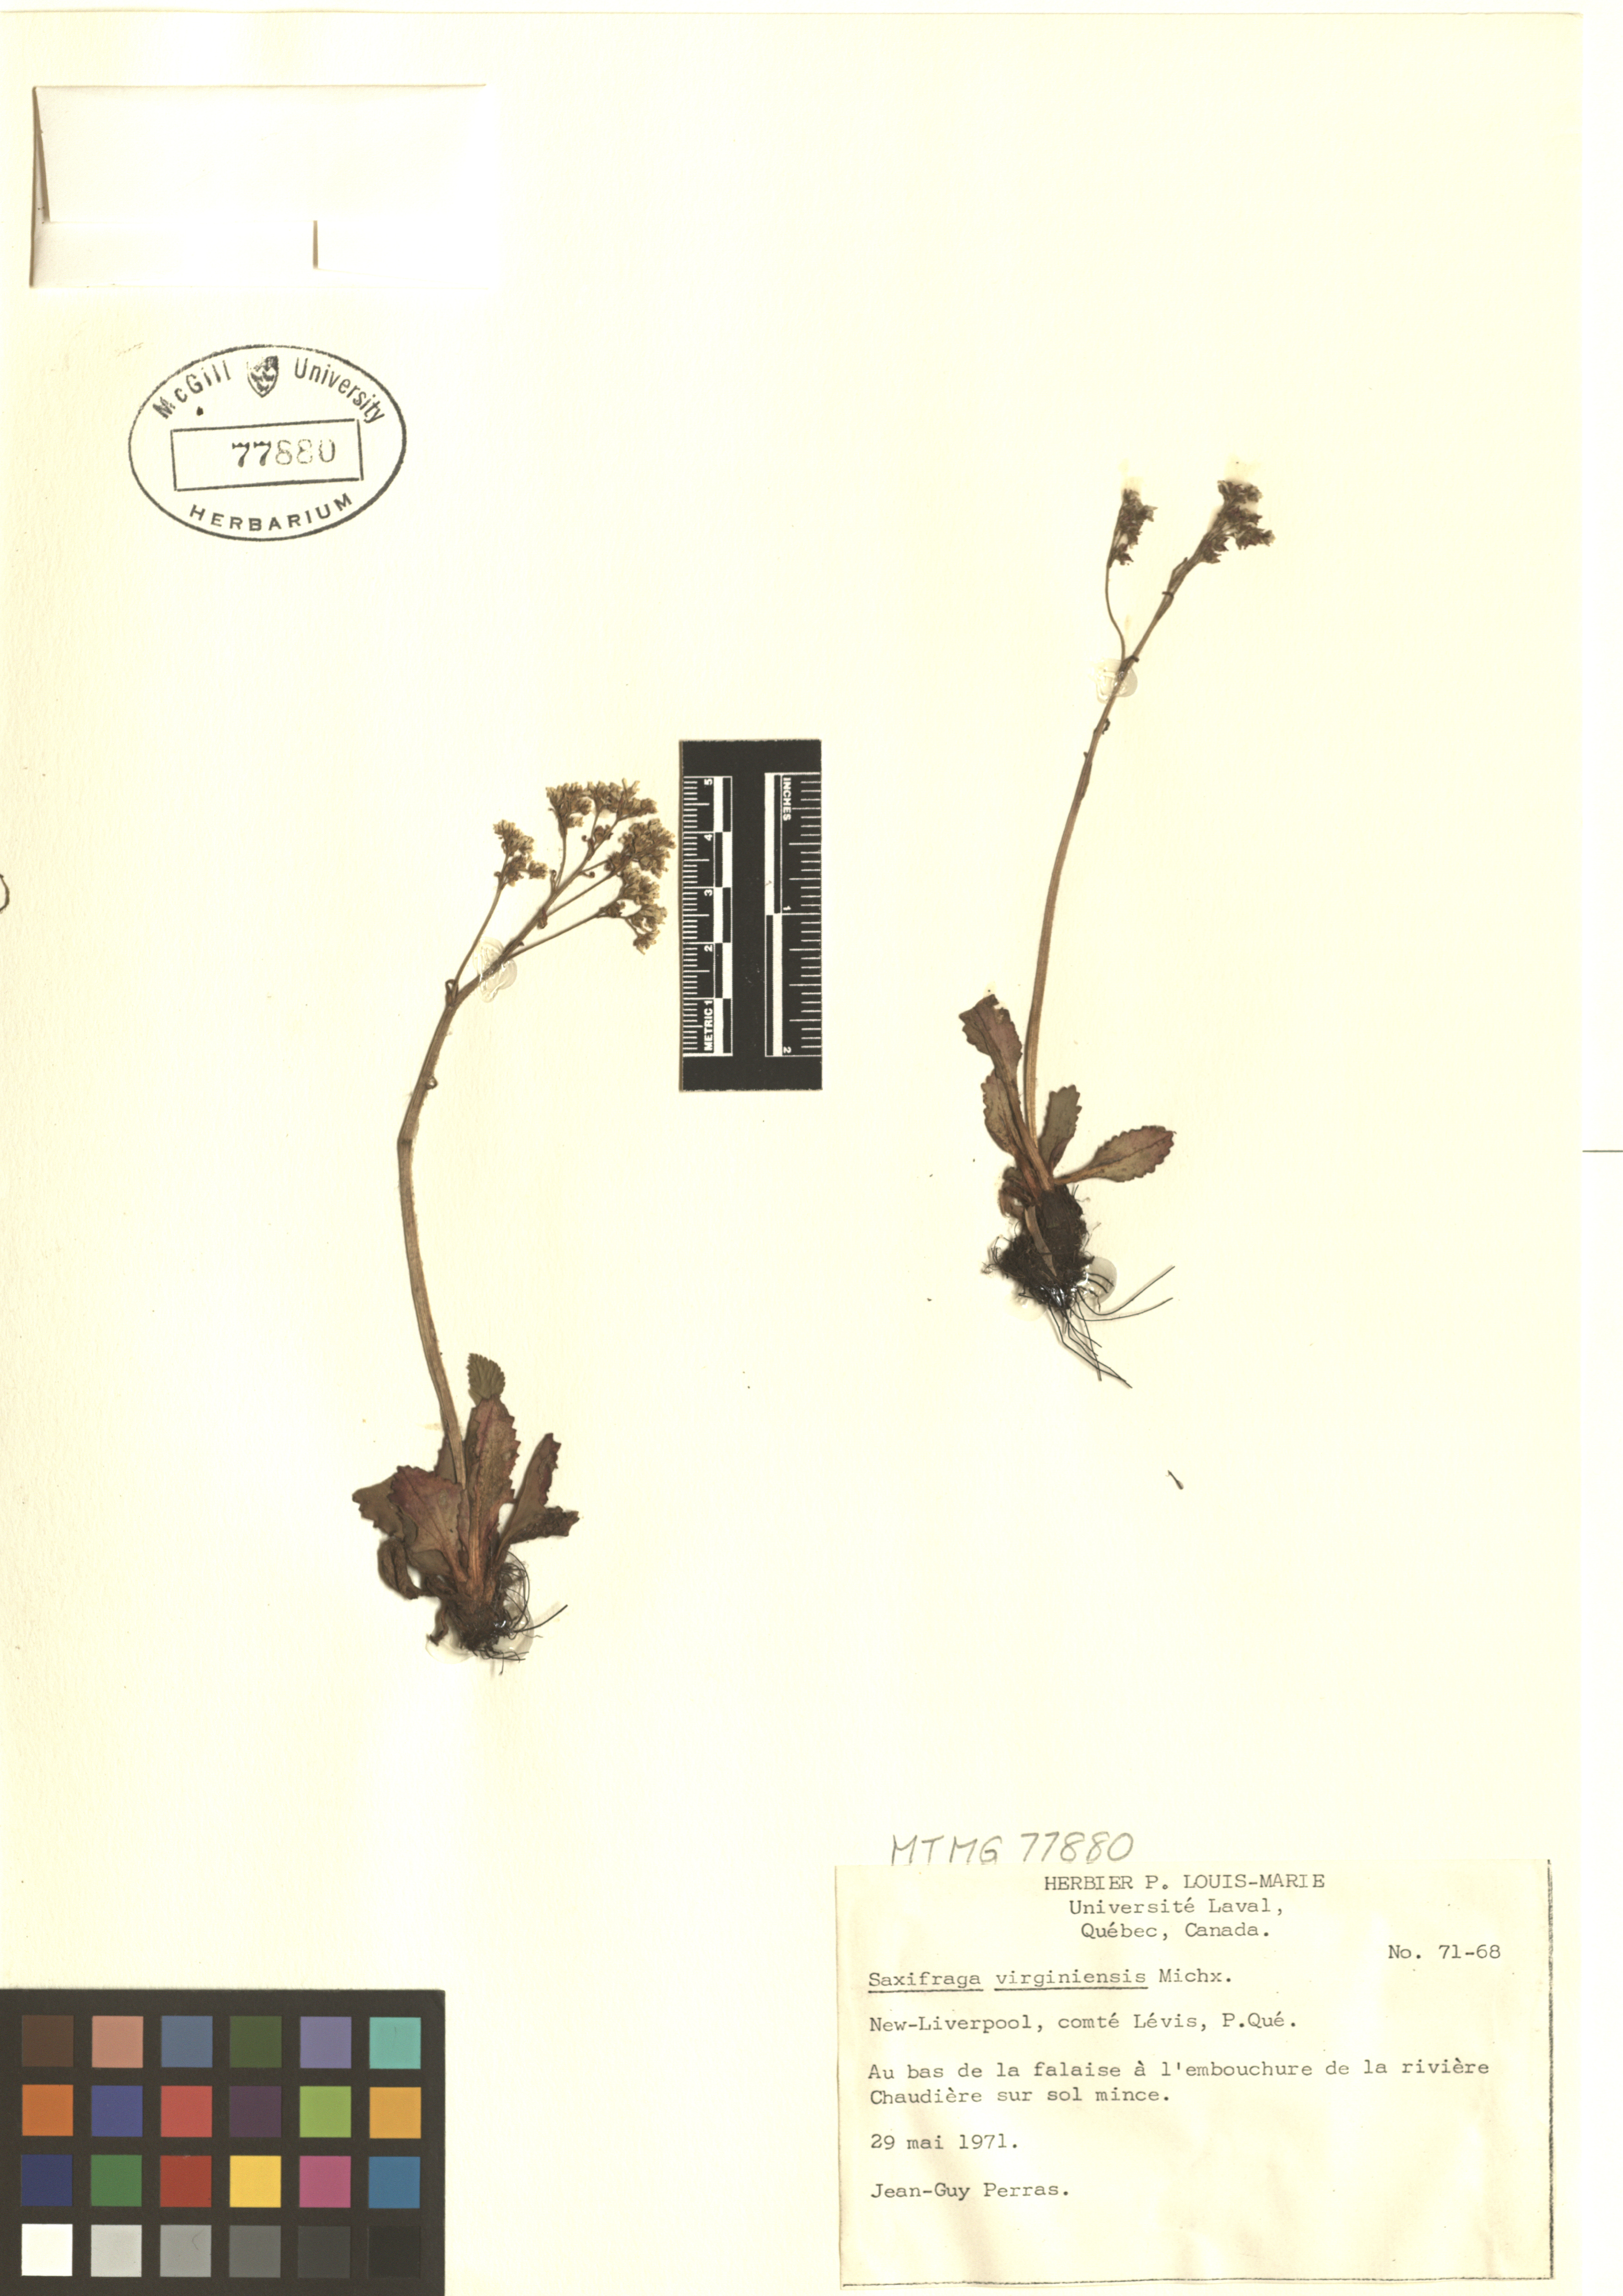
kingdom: Plantae
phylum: Tracheophyta
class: Magnoliopsida
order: Saxifragales
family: Saxifragaceae
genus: Micranthes
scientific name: Micranthes virginiensis
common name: Early saxifrage
